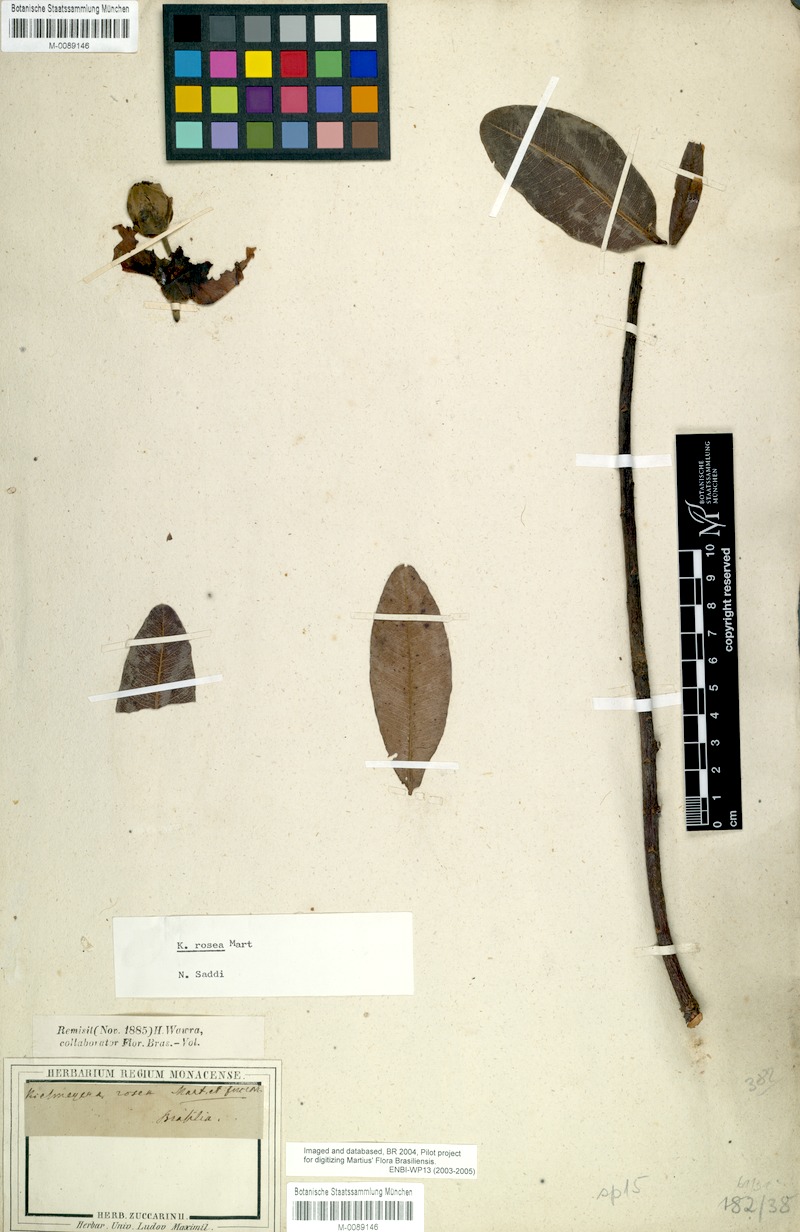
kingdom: Plantae
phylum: Tracheophyta
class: Magnoliopsida
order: Malpighiales
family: Calophyllaceae
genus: Kielmeyera
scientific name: Kielmeyera rosea
